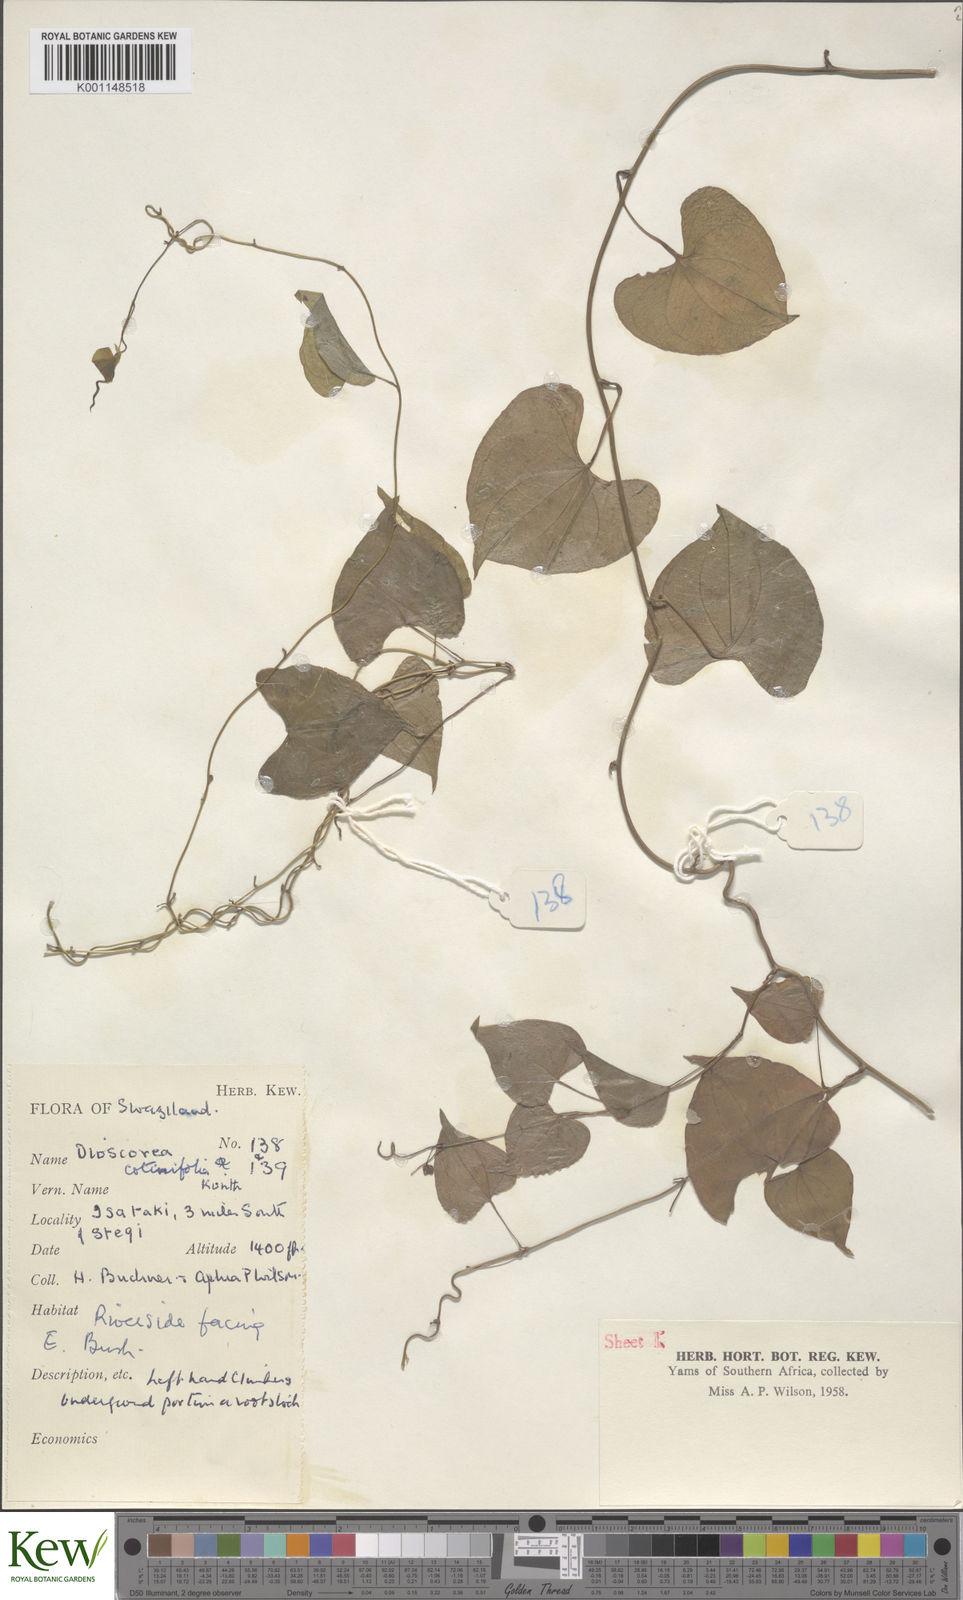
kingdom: Plantae
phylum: Tracheophyta
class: Liliopsida
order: Dioscoreales
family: Dioscoreaceae
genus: Dioscorea
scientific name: Dioscorea cotinifolia
